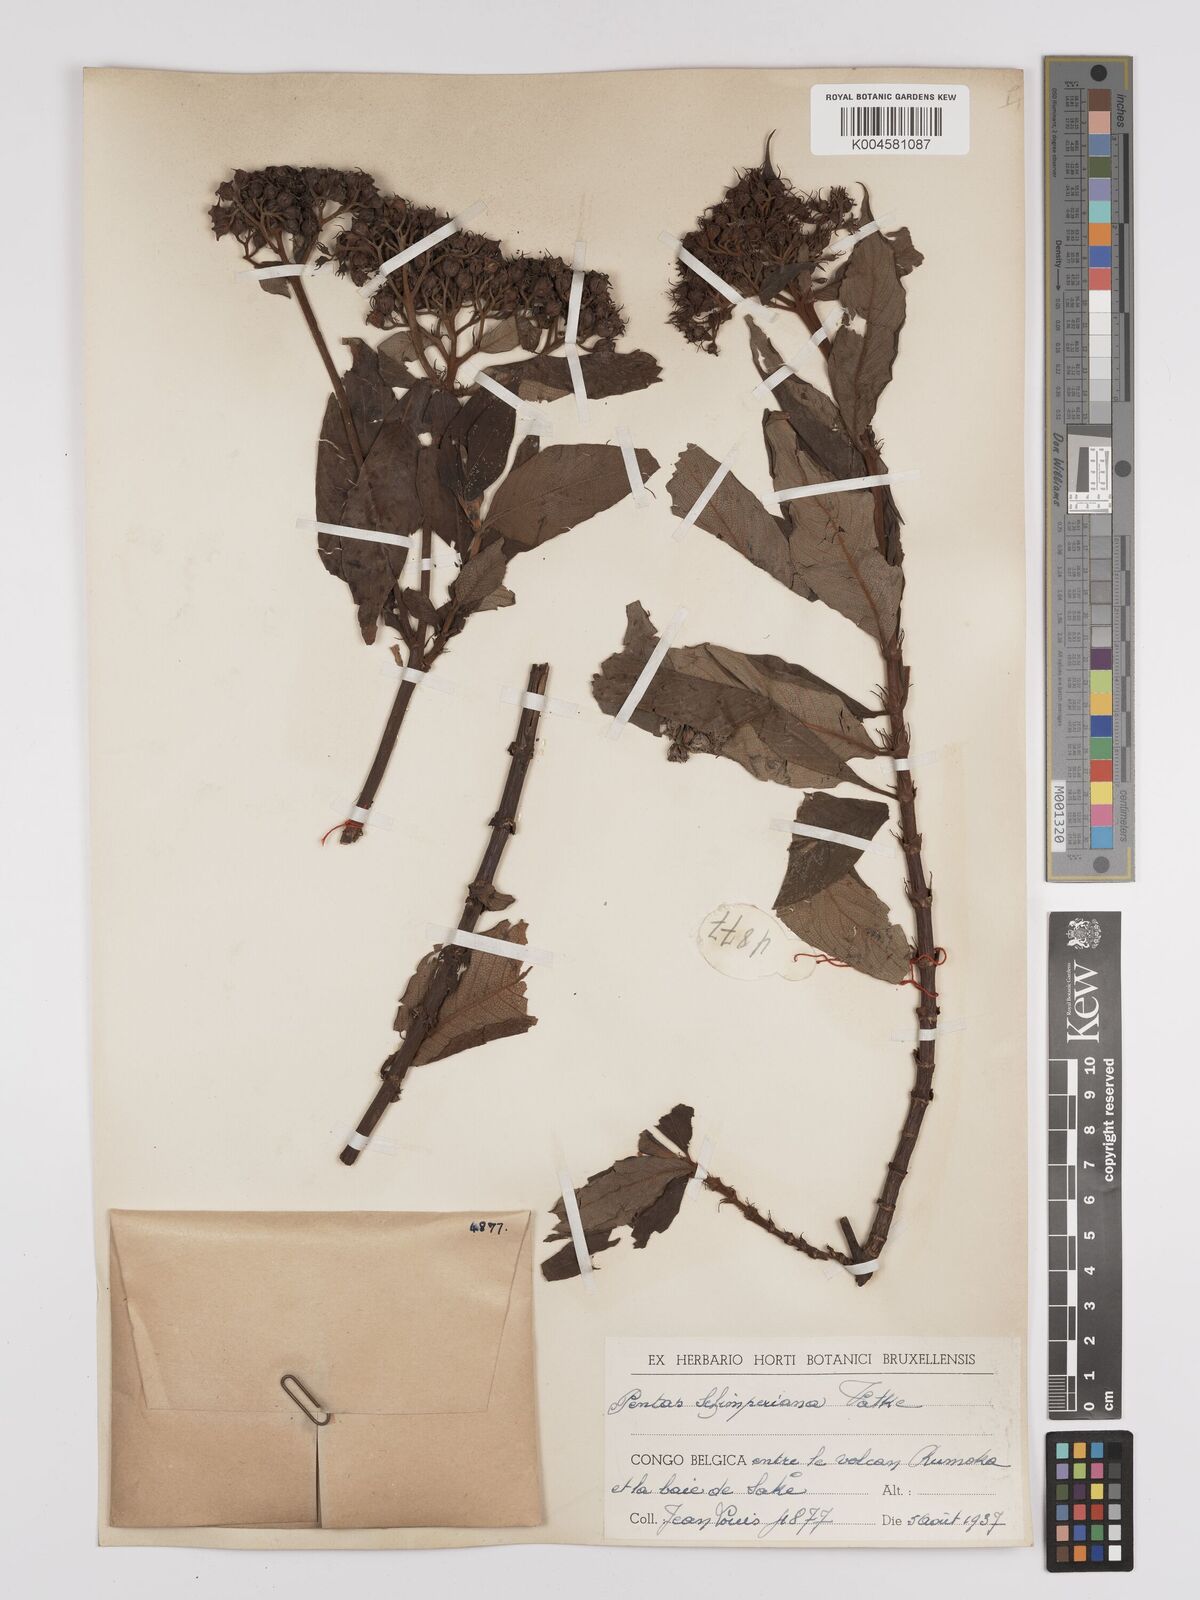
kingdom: Plantae
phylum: Tracheophyta
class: Magnoliopsida
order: Gentianales
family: Rubiaceae
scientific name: Rubiaceae
